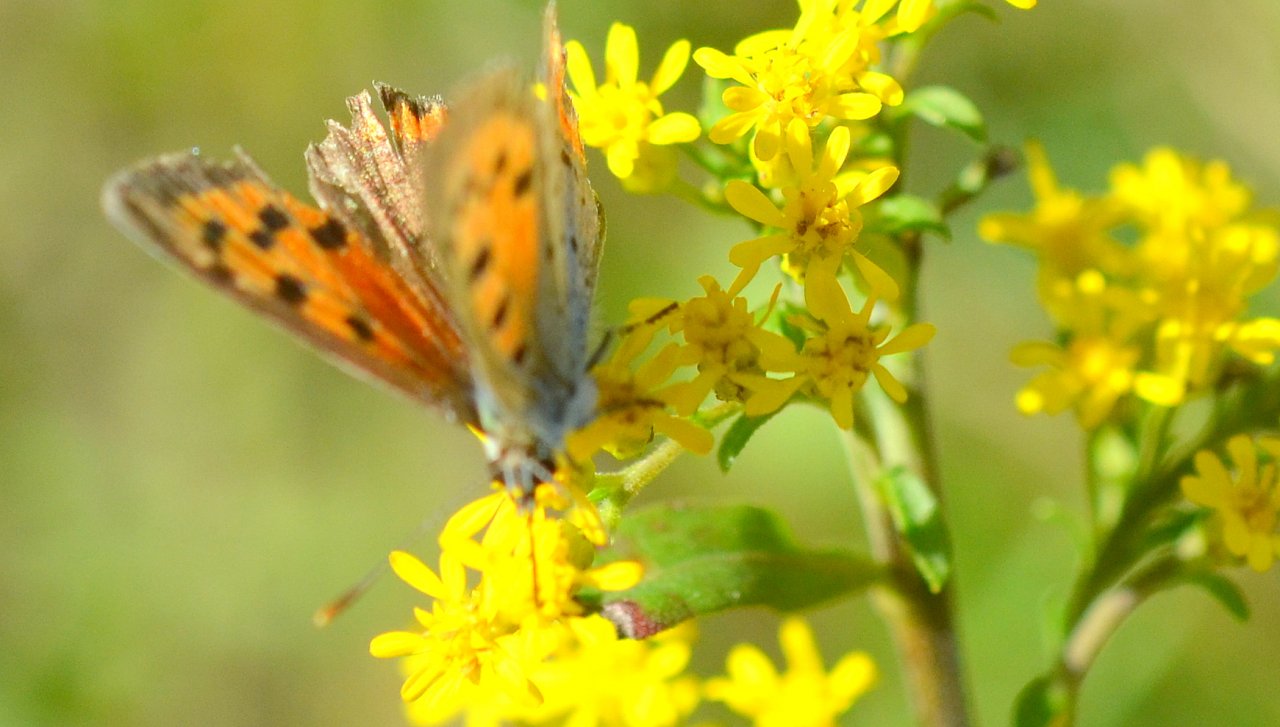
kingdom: Animalia
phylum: Arthropoda
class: Insecta
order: Lepidoptera
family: Lycaenidae
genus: Lycaena
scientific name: Lycaena phlaeas
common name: American Copper
